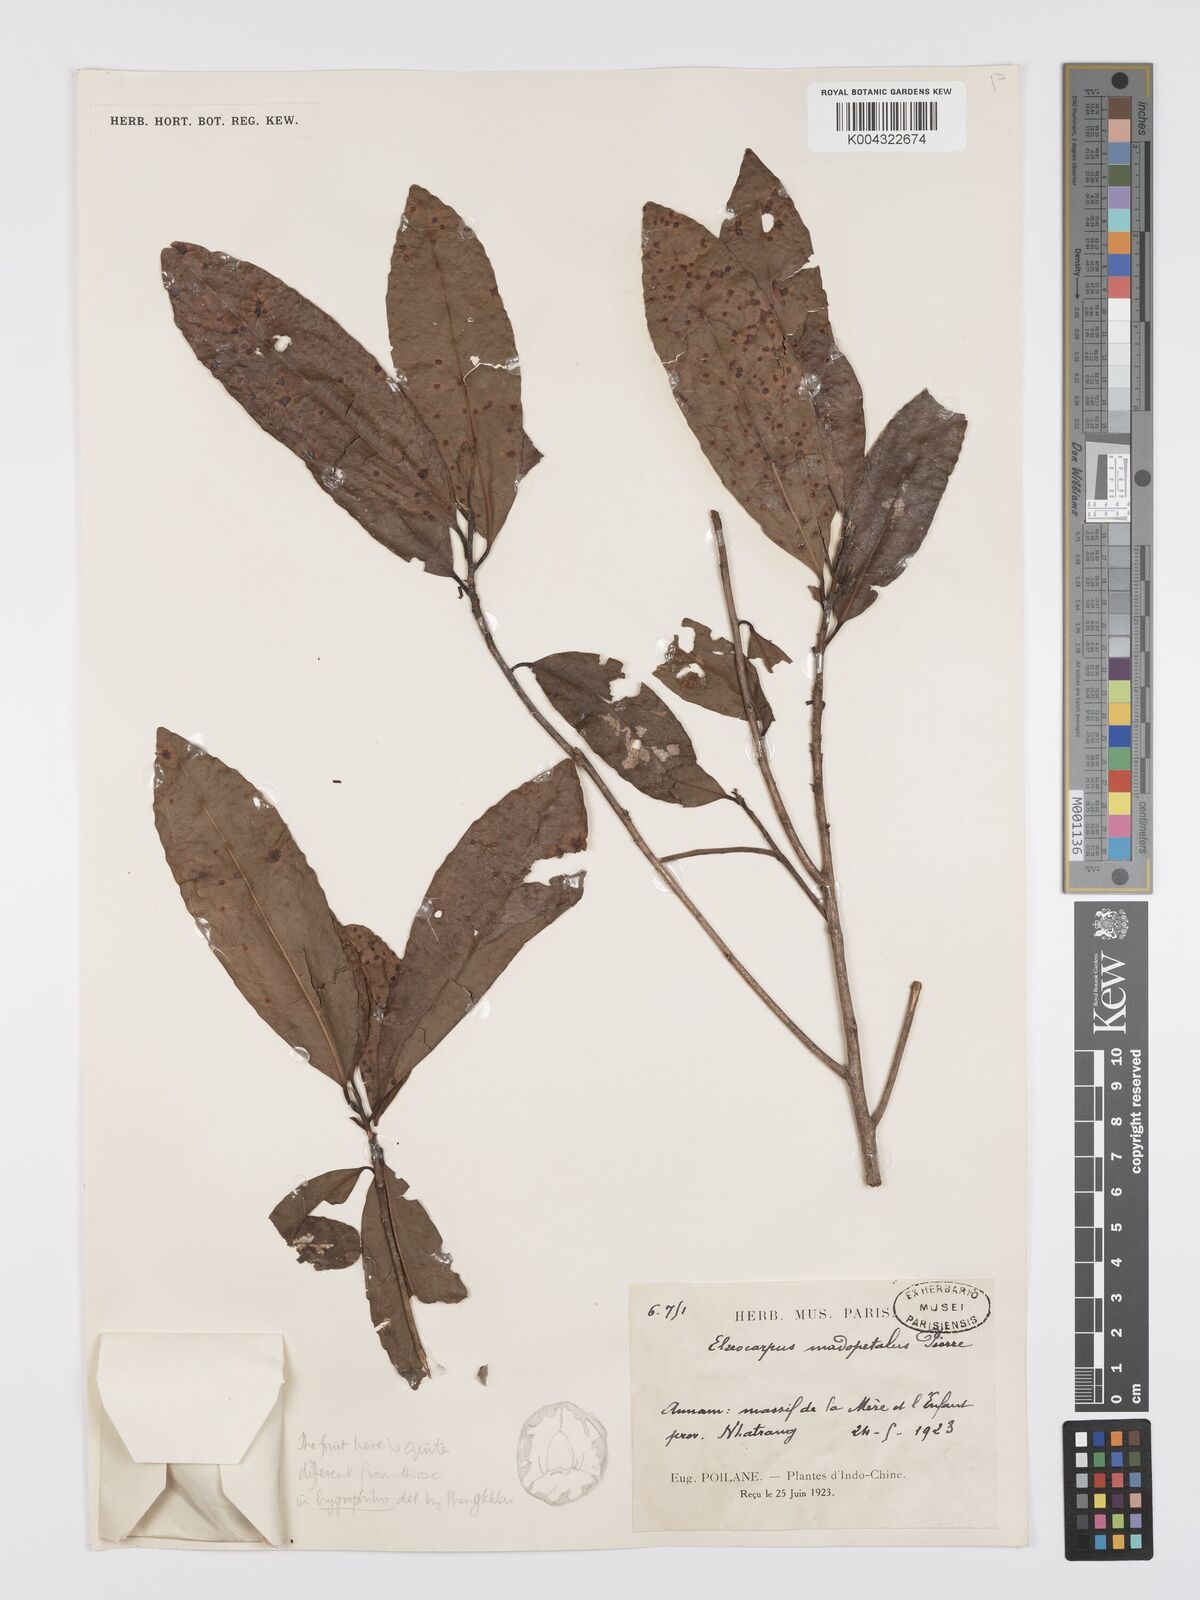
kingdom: Plantae
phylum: Tracheophyta
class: Magnoliopsida
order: Oxalidales
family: Elaeocarpaceae
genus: Elaeocarpus
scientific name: Elaeocarpus hygrophilus
